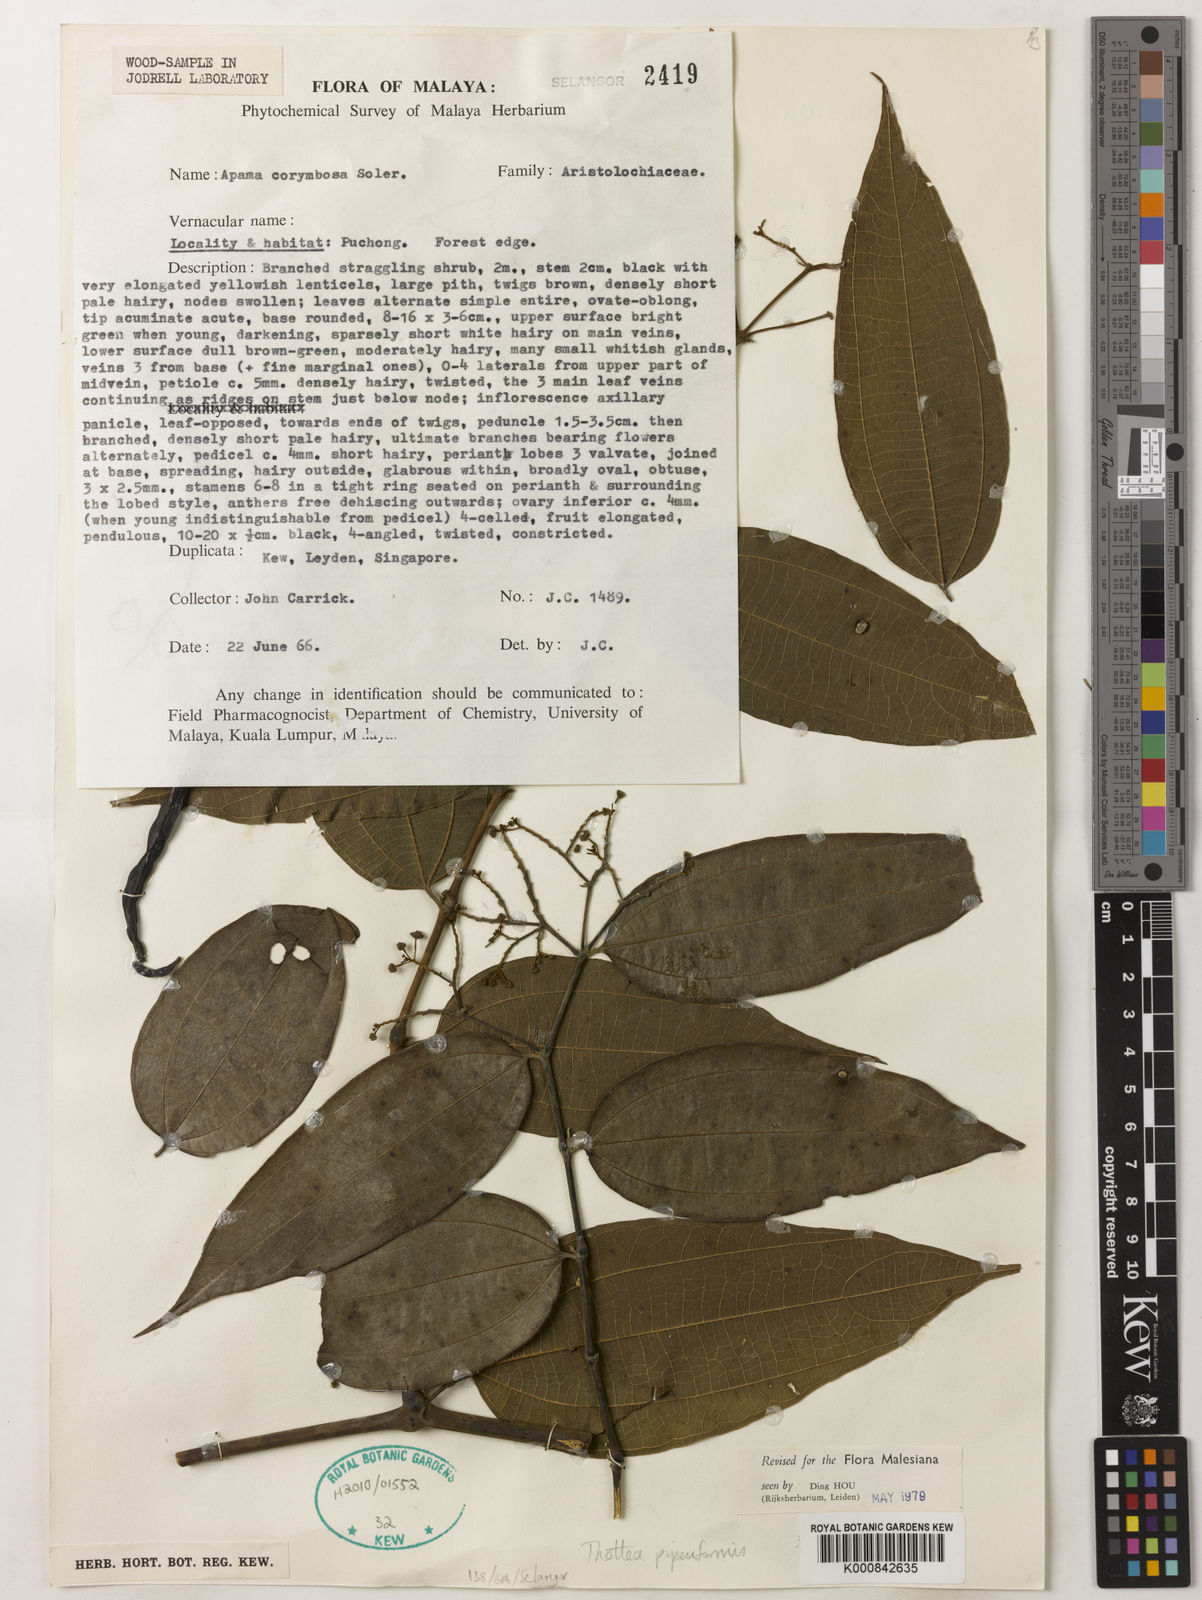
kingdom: Plantae
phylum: Tracheophyta
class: Magnoliopsida
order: Piperales
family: Aristolochiaceae
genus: Thottea
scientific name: Thottea piperiformis
